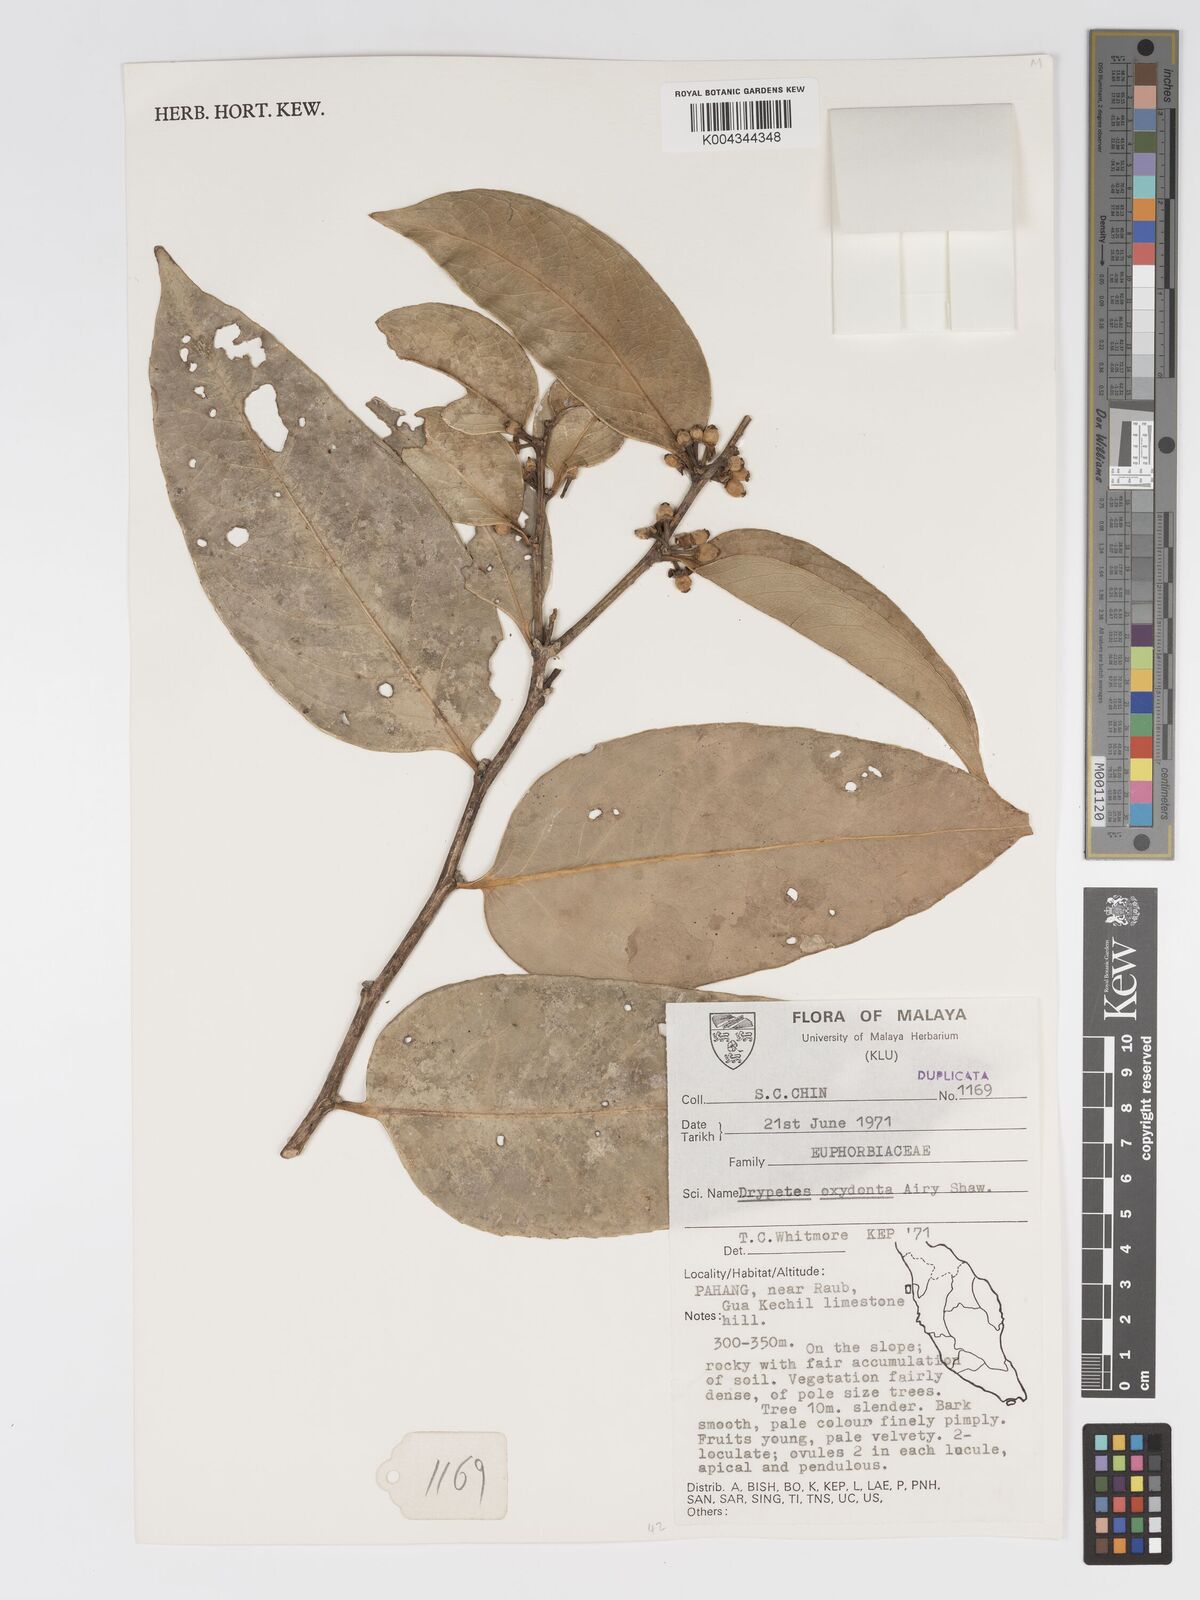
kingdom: Plantae
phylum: Tracheophyta
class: Magnoliopsida
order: Malpighiales
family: Putranjivaceae
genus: Drypetes
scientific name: Drypetes oxyodonta
